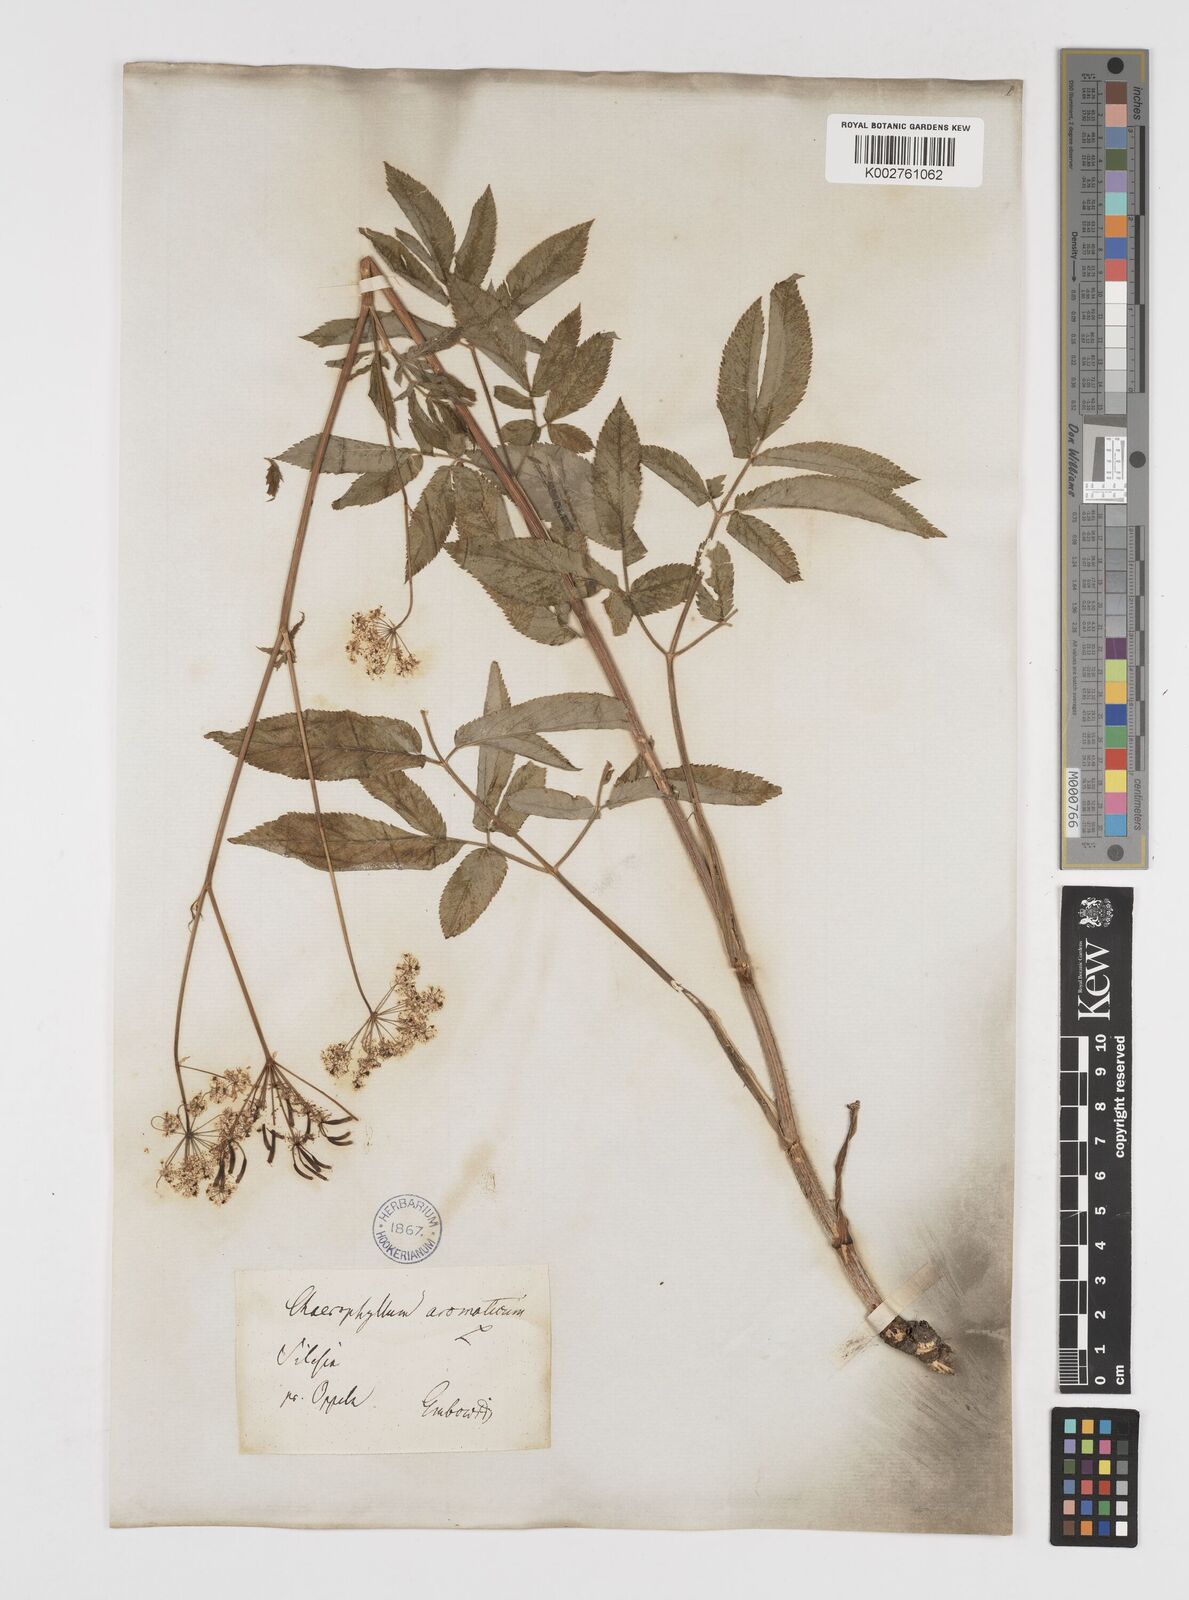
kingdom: Plantae
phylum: Tracheophyta
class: Magnoliopsida
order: Apiales
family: Apiaceae
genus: Chaerophyllum
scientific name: Chaerophyllum aromaticum
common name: Broadleaf chervil
